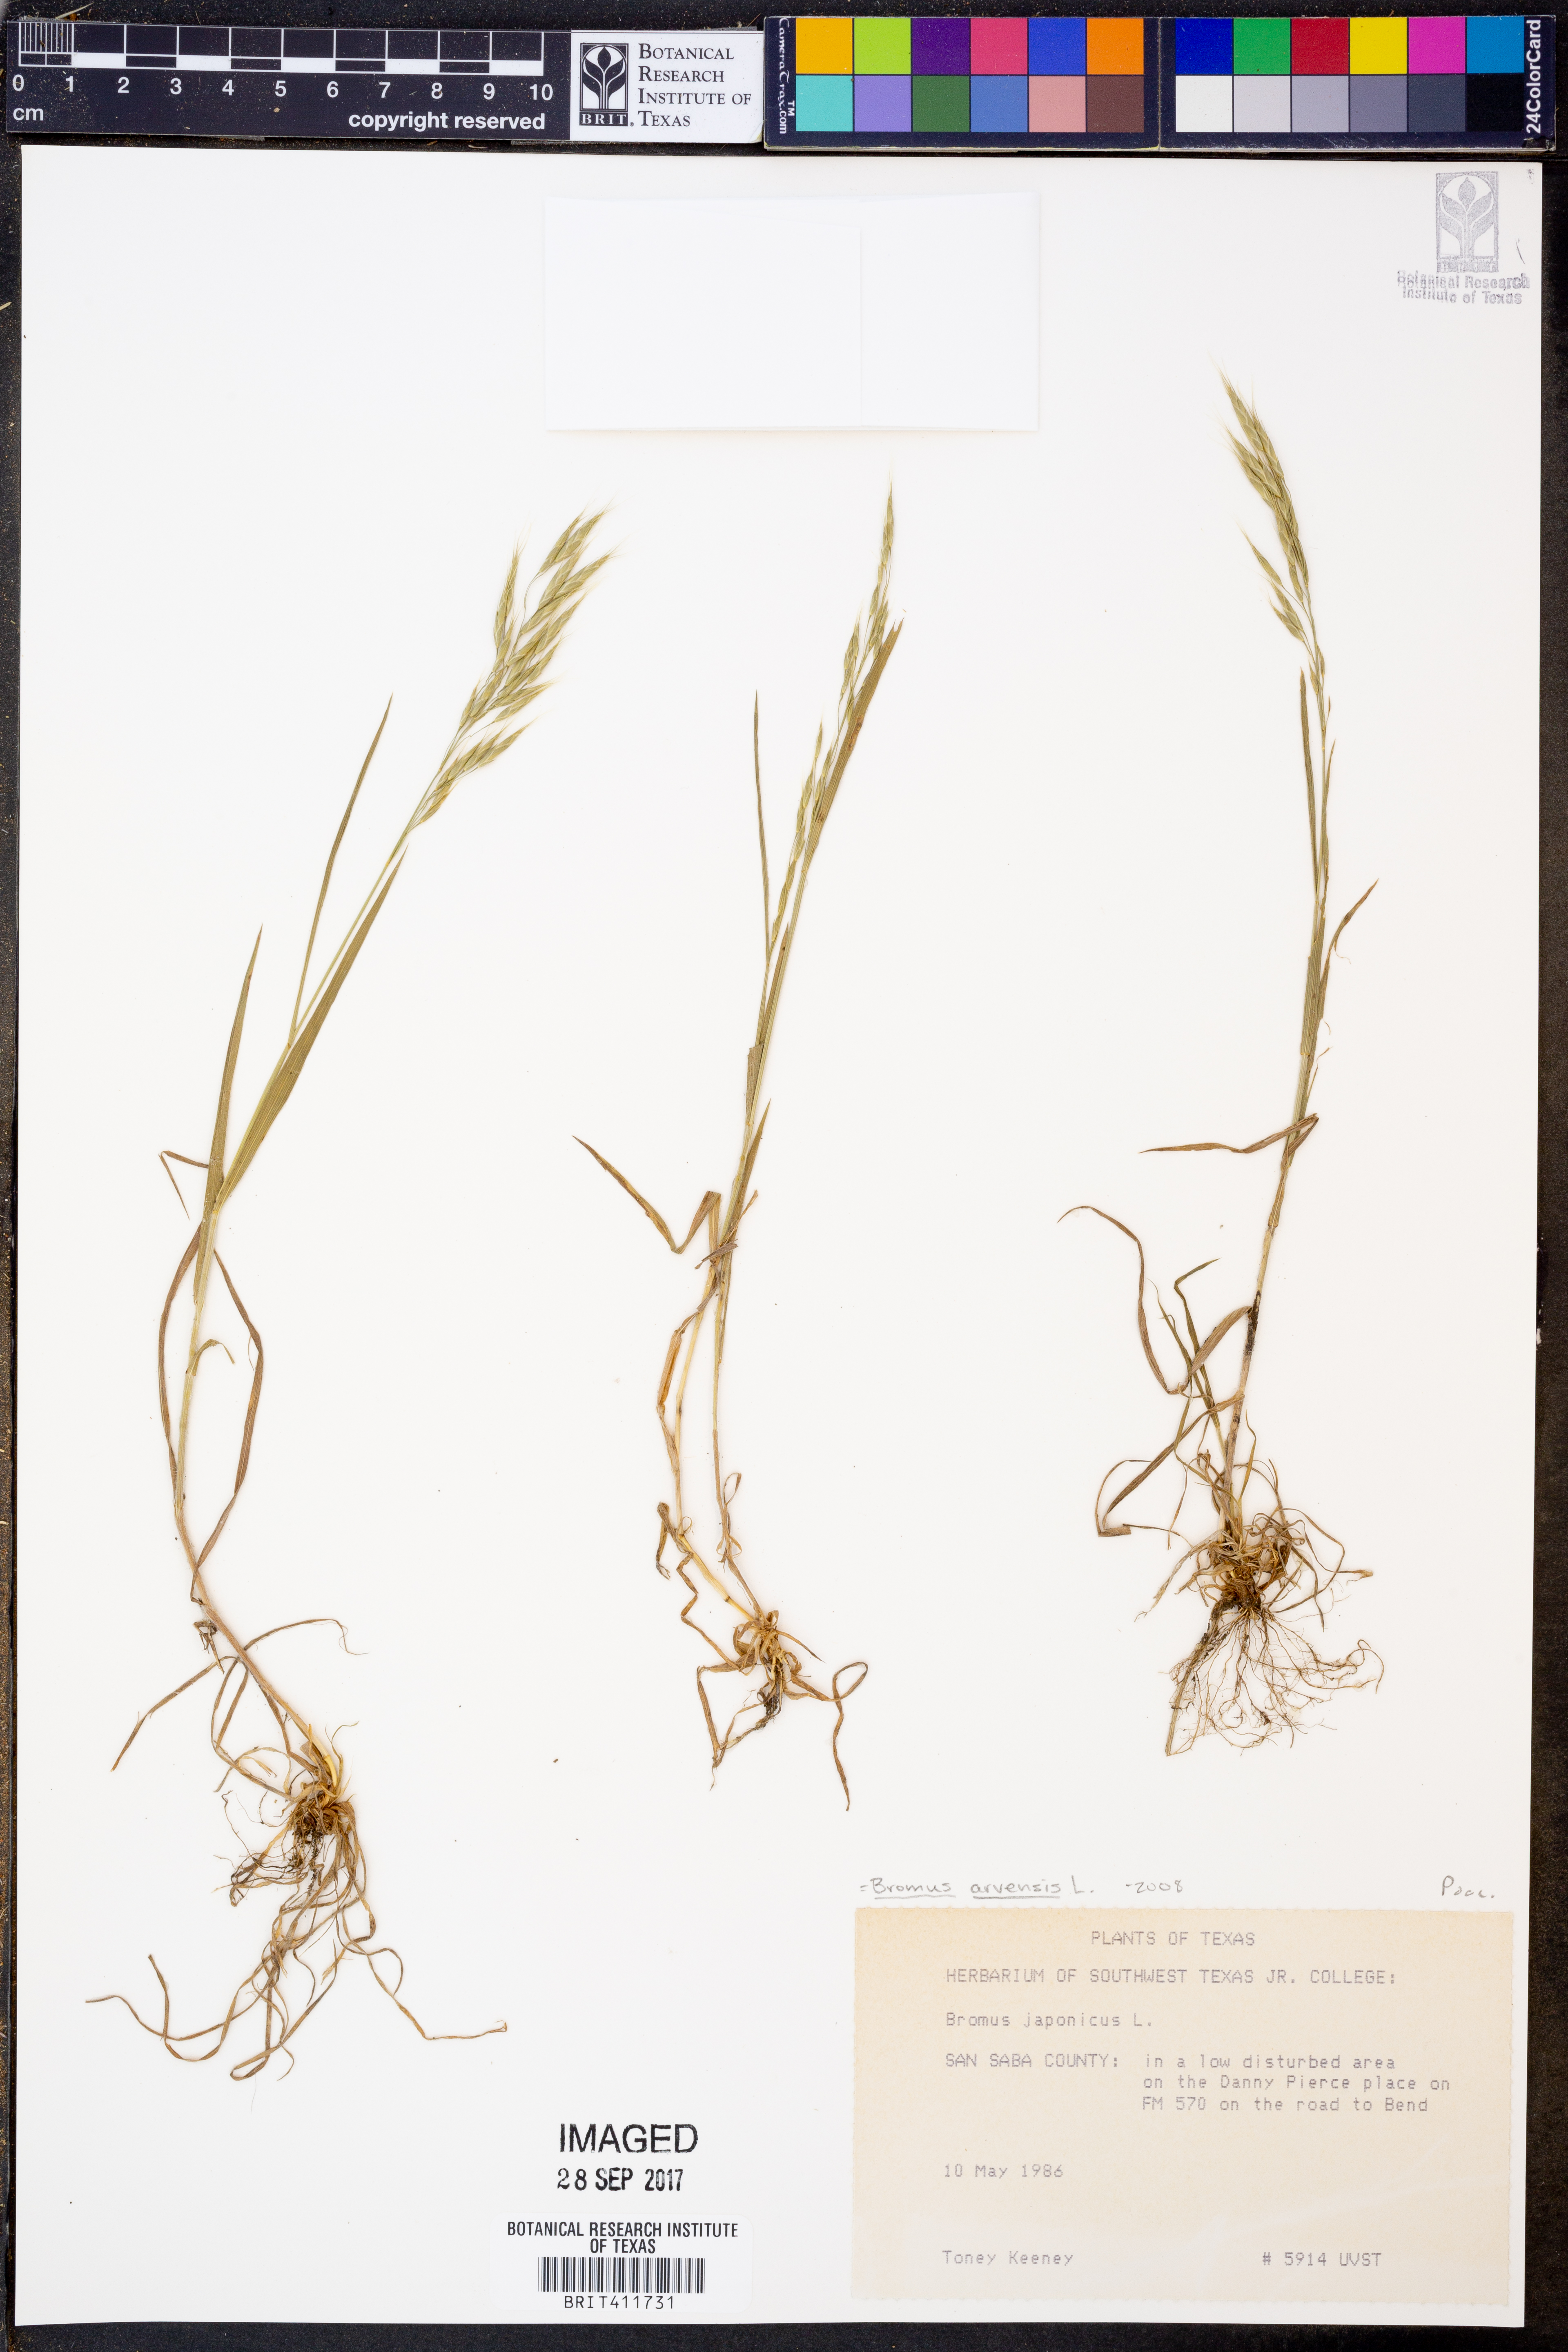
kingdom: Plantae
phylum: Tracheophyta
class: Liliopsida
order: Poales
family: Poaceae
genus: Bromus
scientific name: Bromus arvensis
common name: Field brome
